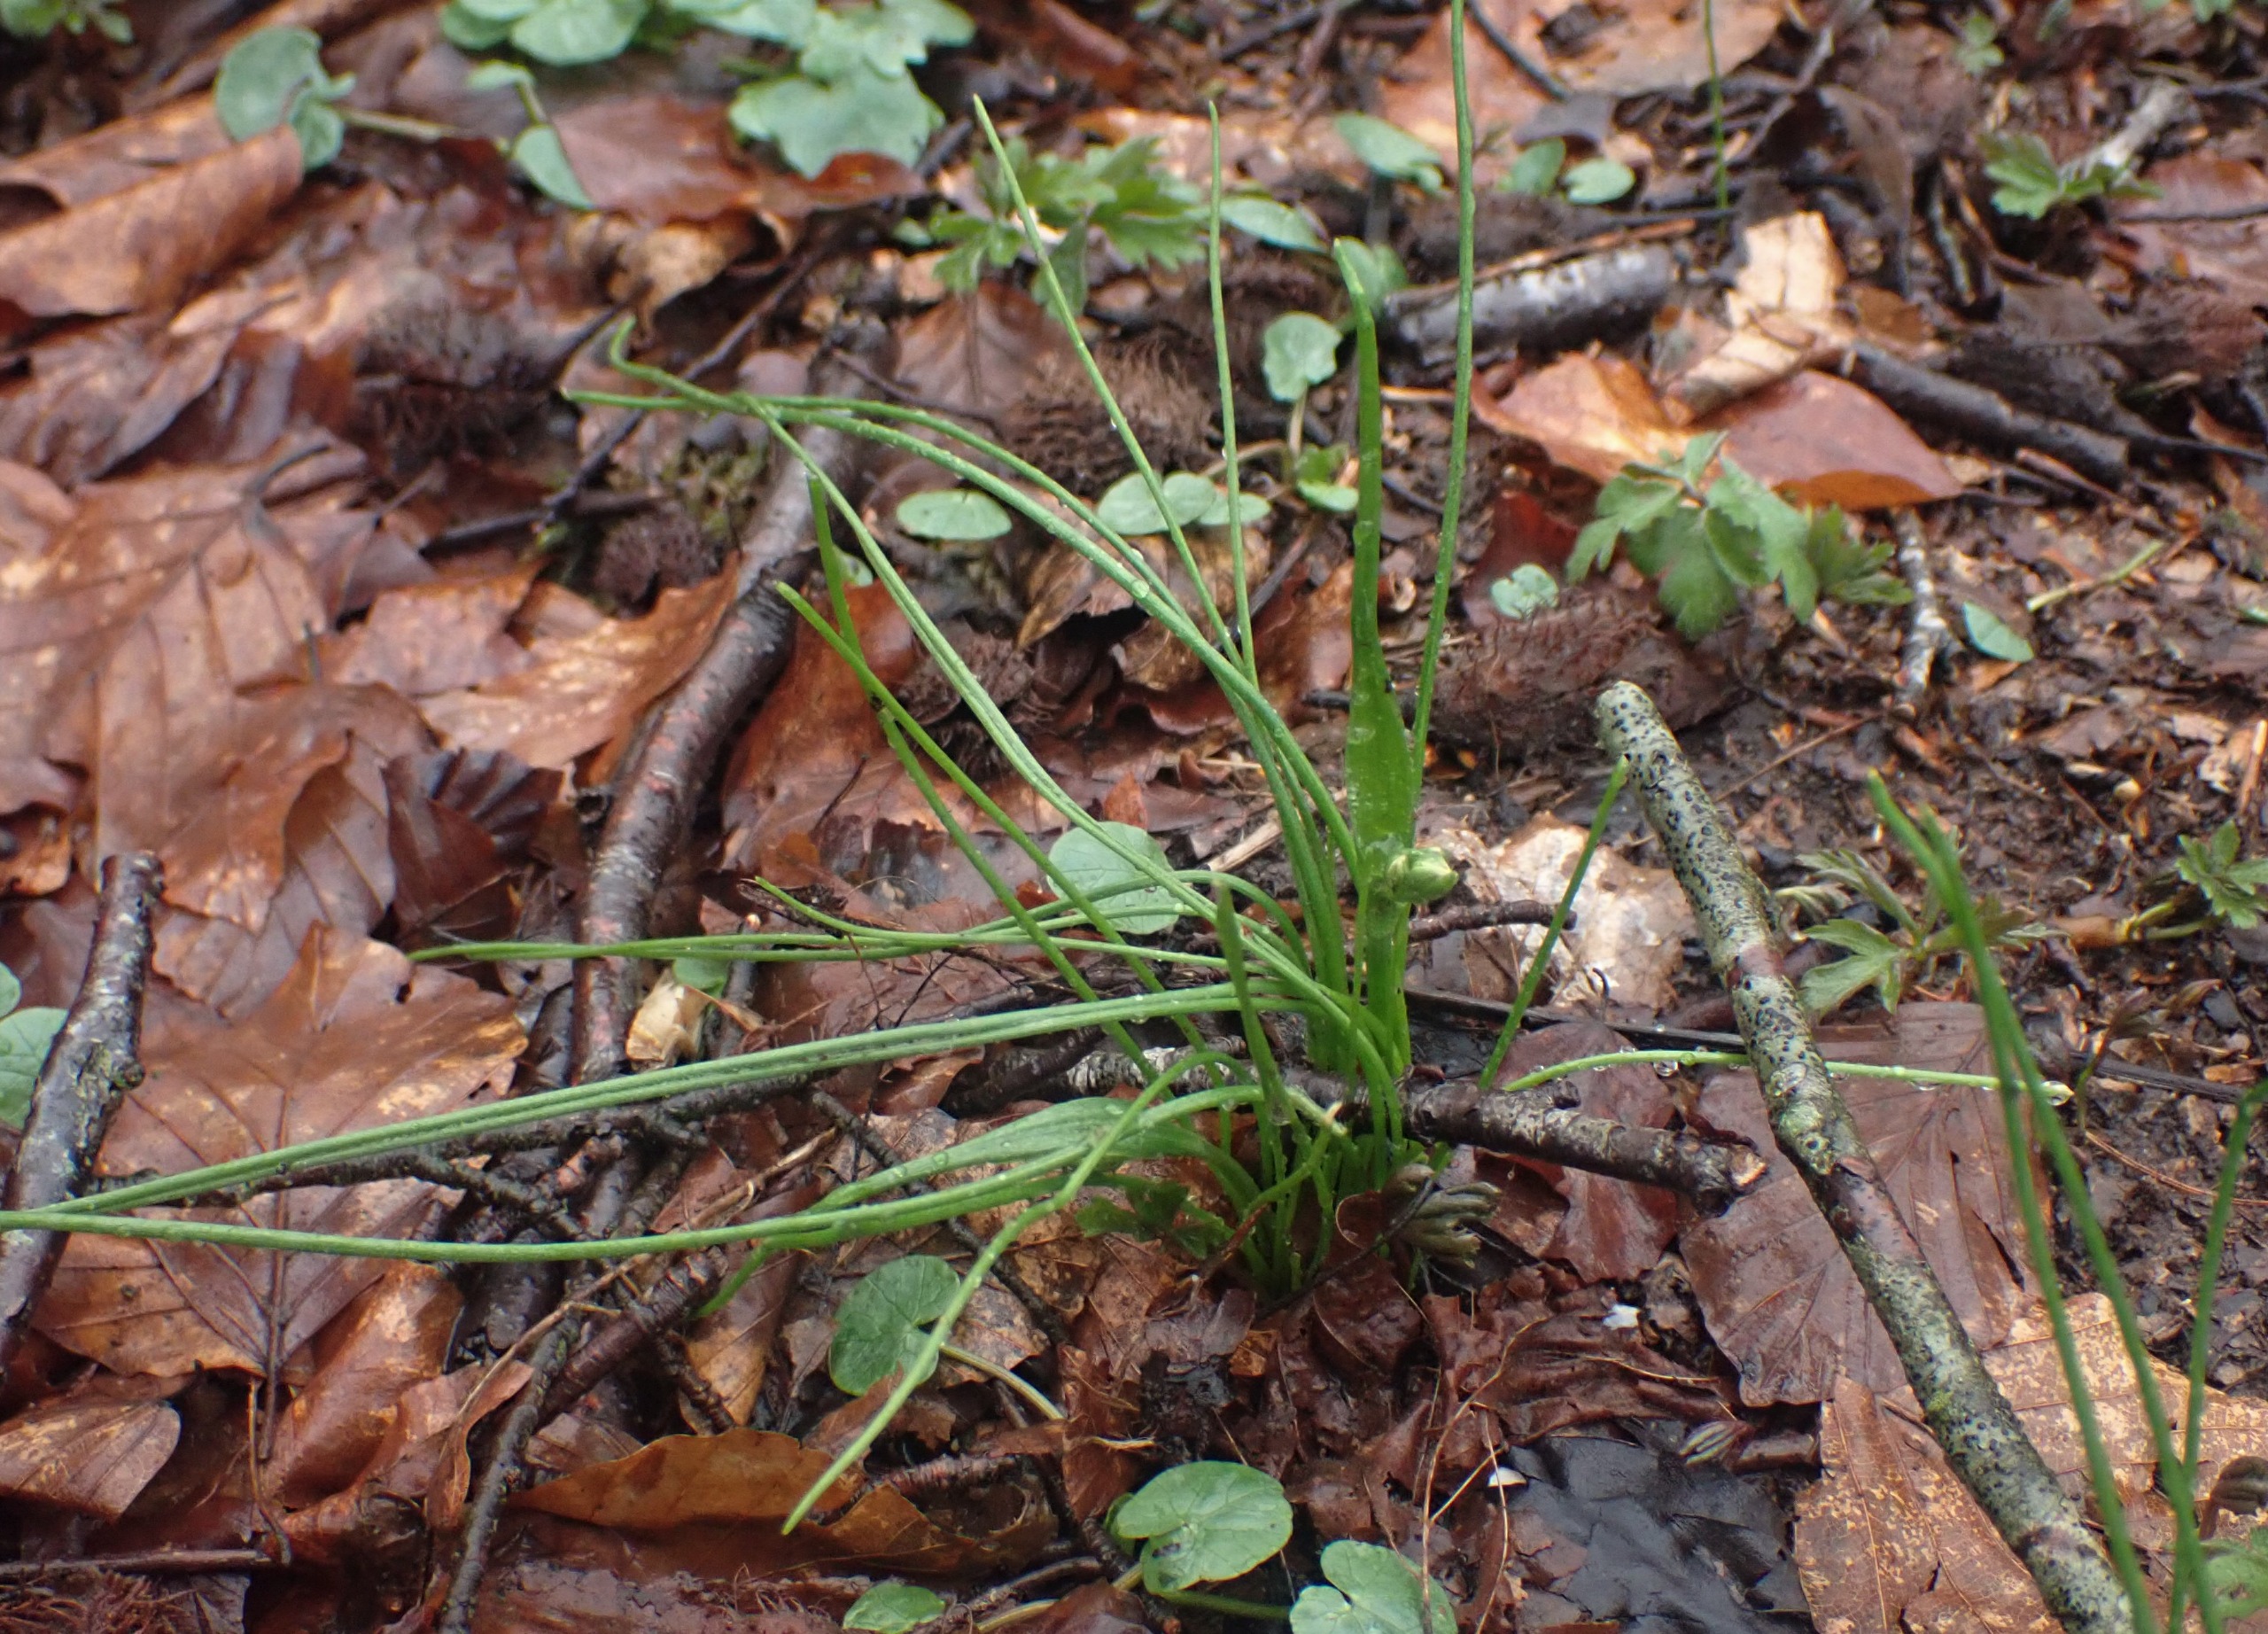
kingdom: Plantae
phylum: Tracheophyta
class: Liliopsida
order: Liliales
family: Liliaceae
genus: Gagea
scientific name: Gagea spathacea
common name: Hylster-guldstjerne
